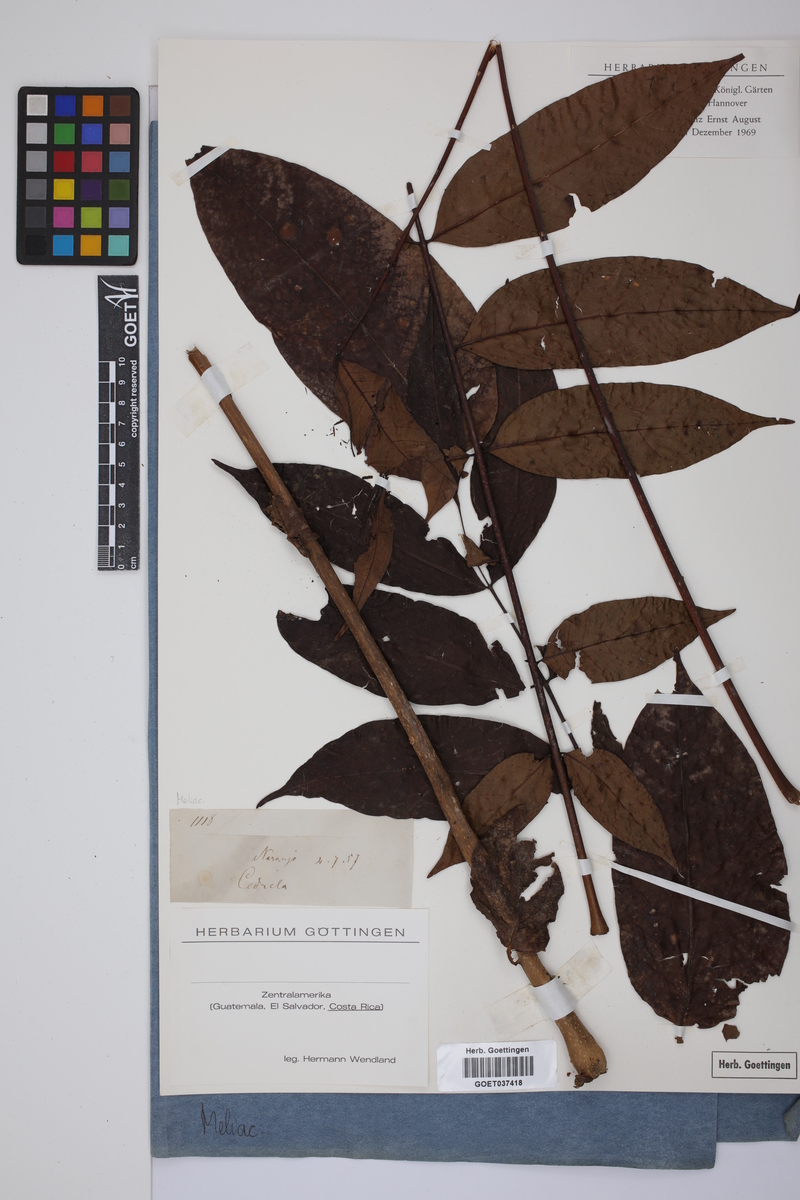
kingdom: Plantae
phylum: Tracheophyta
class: Magnoliopsida
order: Sapindales
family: Meliaceae
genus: Cedrela
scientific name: Cedrela
